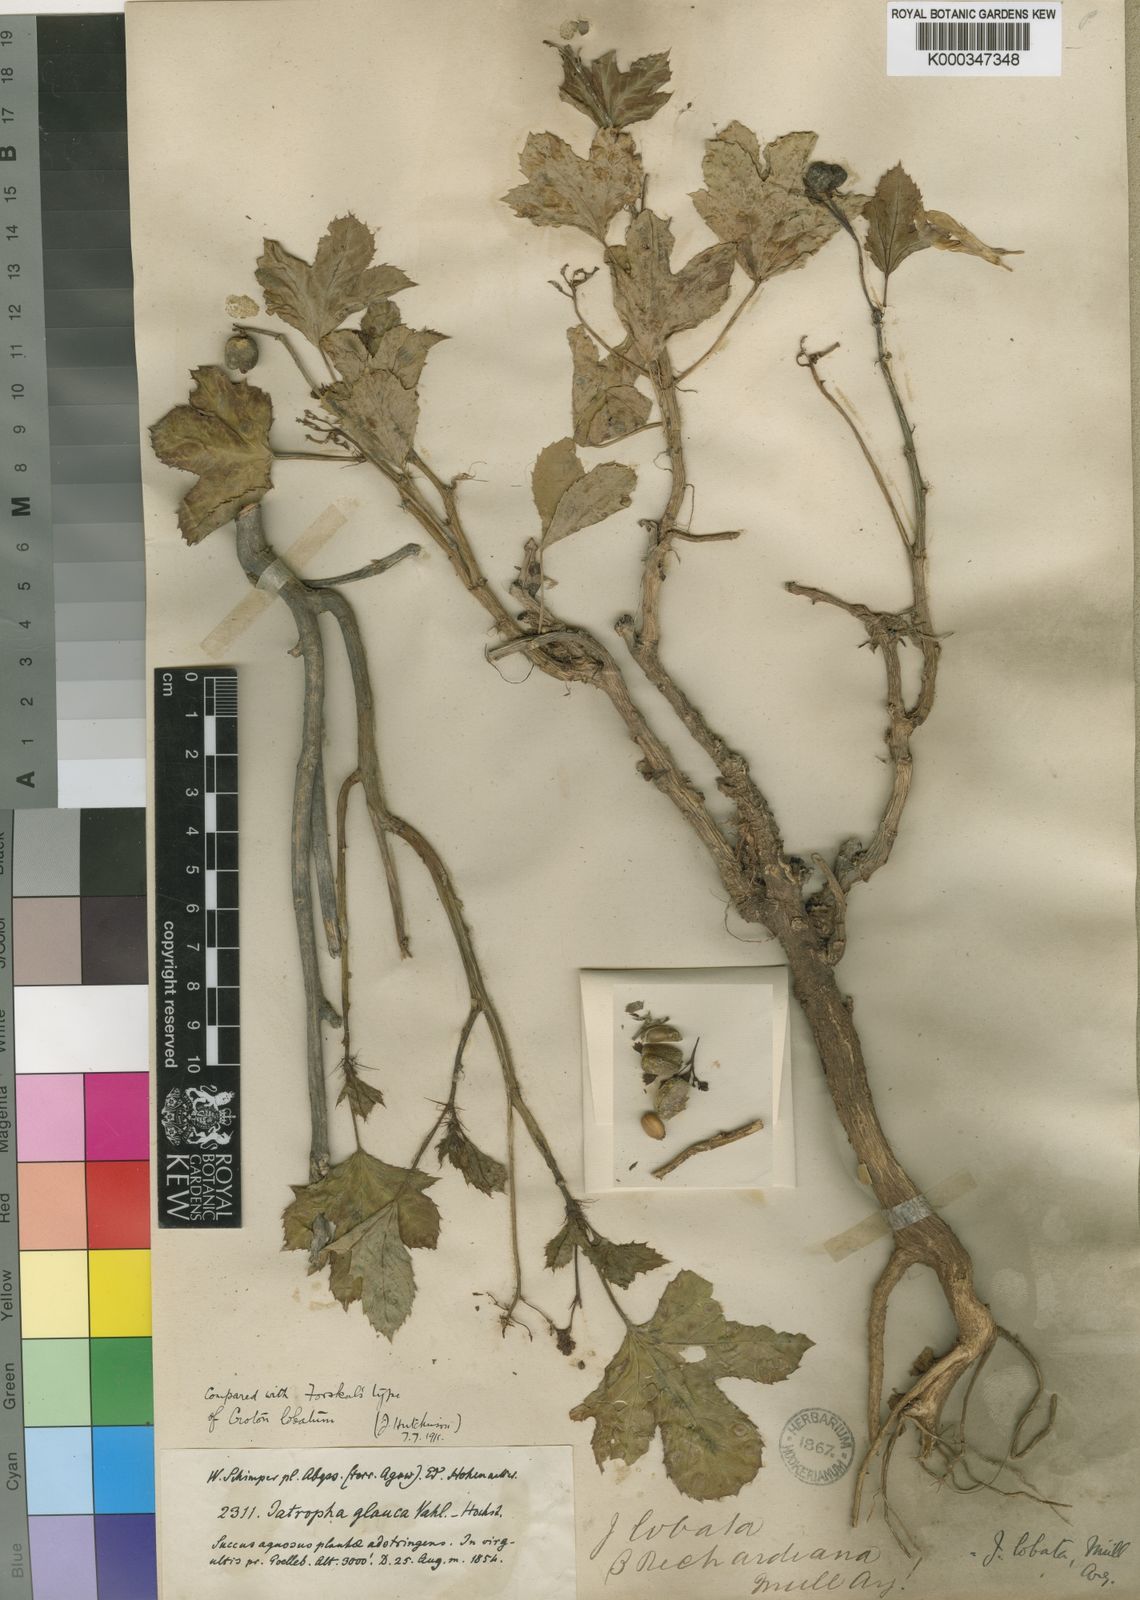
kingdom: Plantae
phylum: Tracheophyta
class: Magnoliopsida
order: Malpighiales
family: Euphorbiaceae
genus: Jatropha
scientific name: Jatropha glauca
